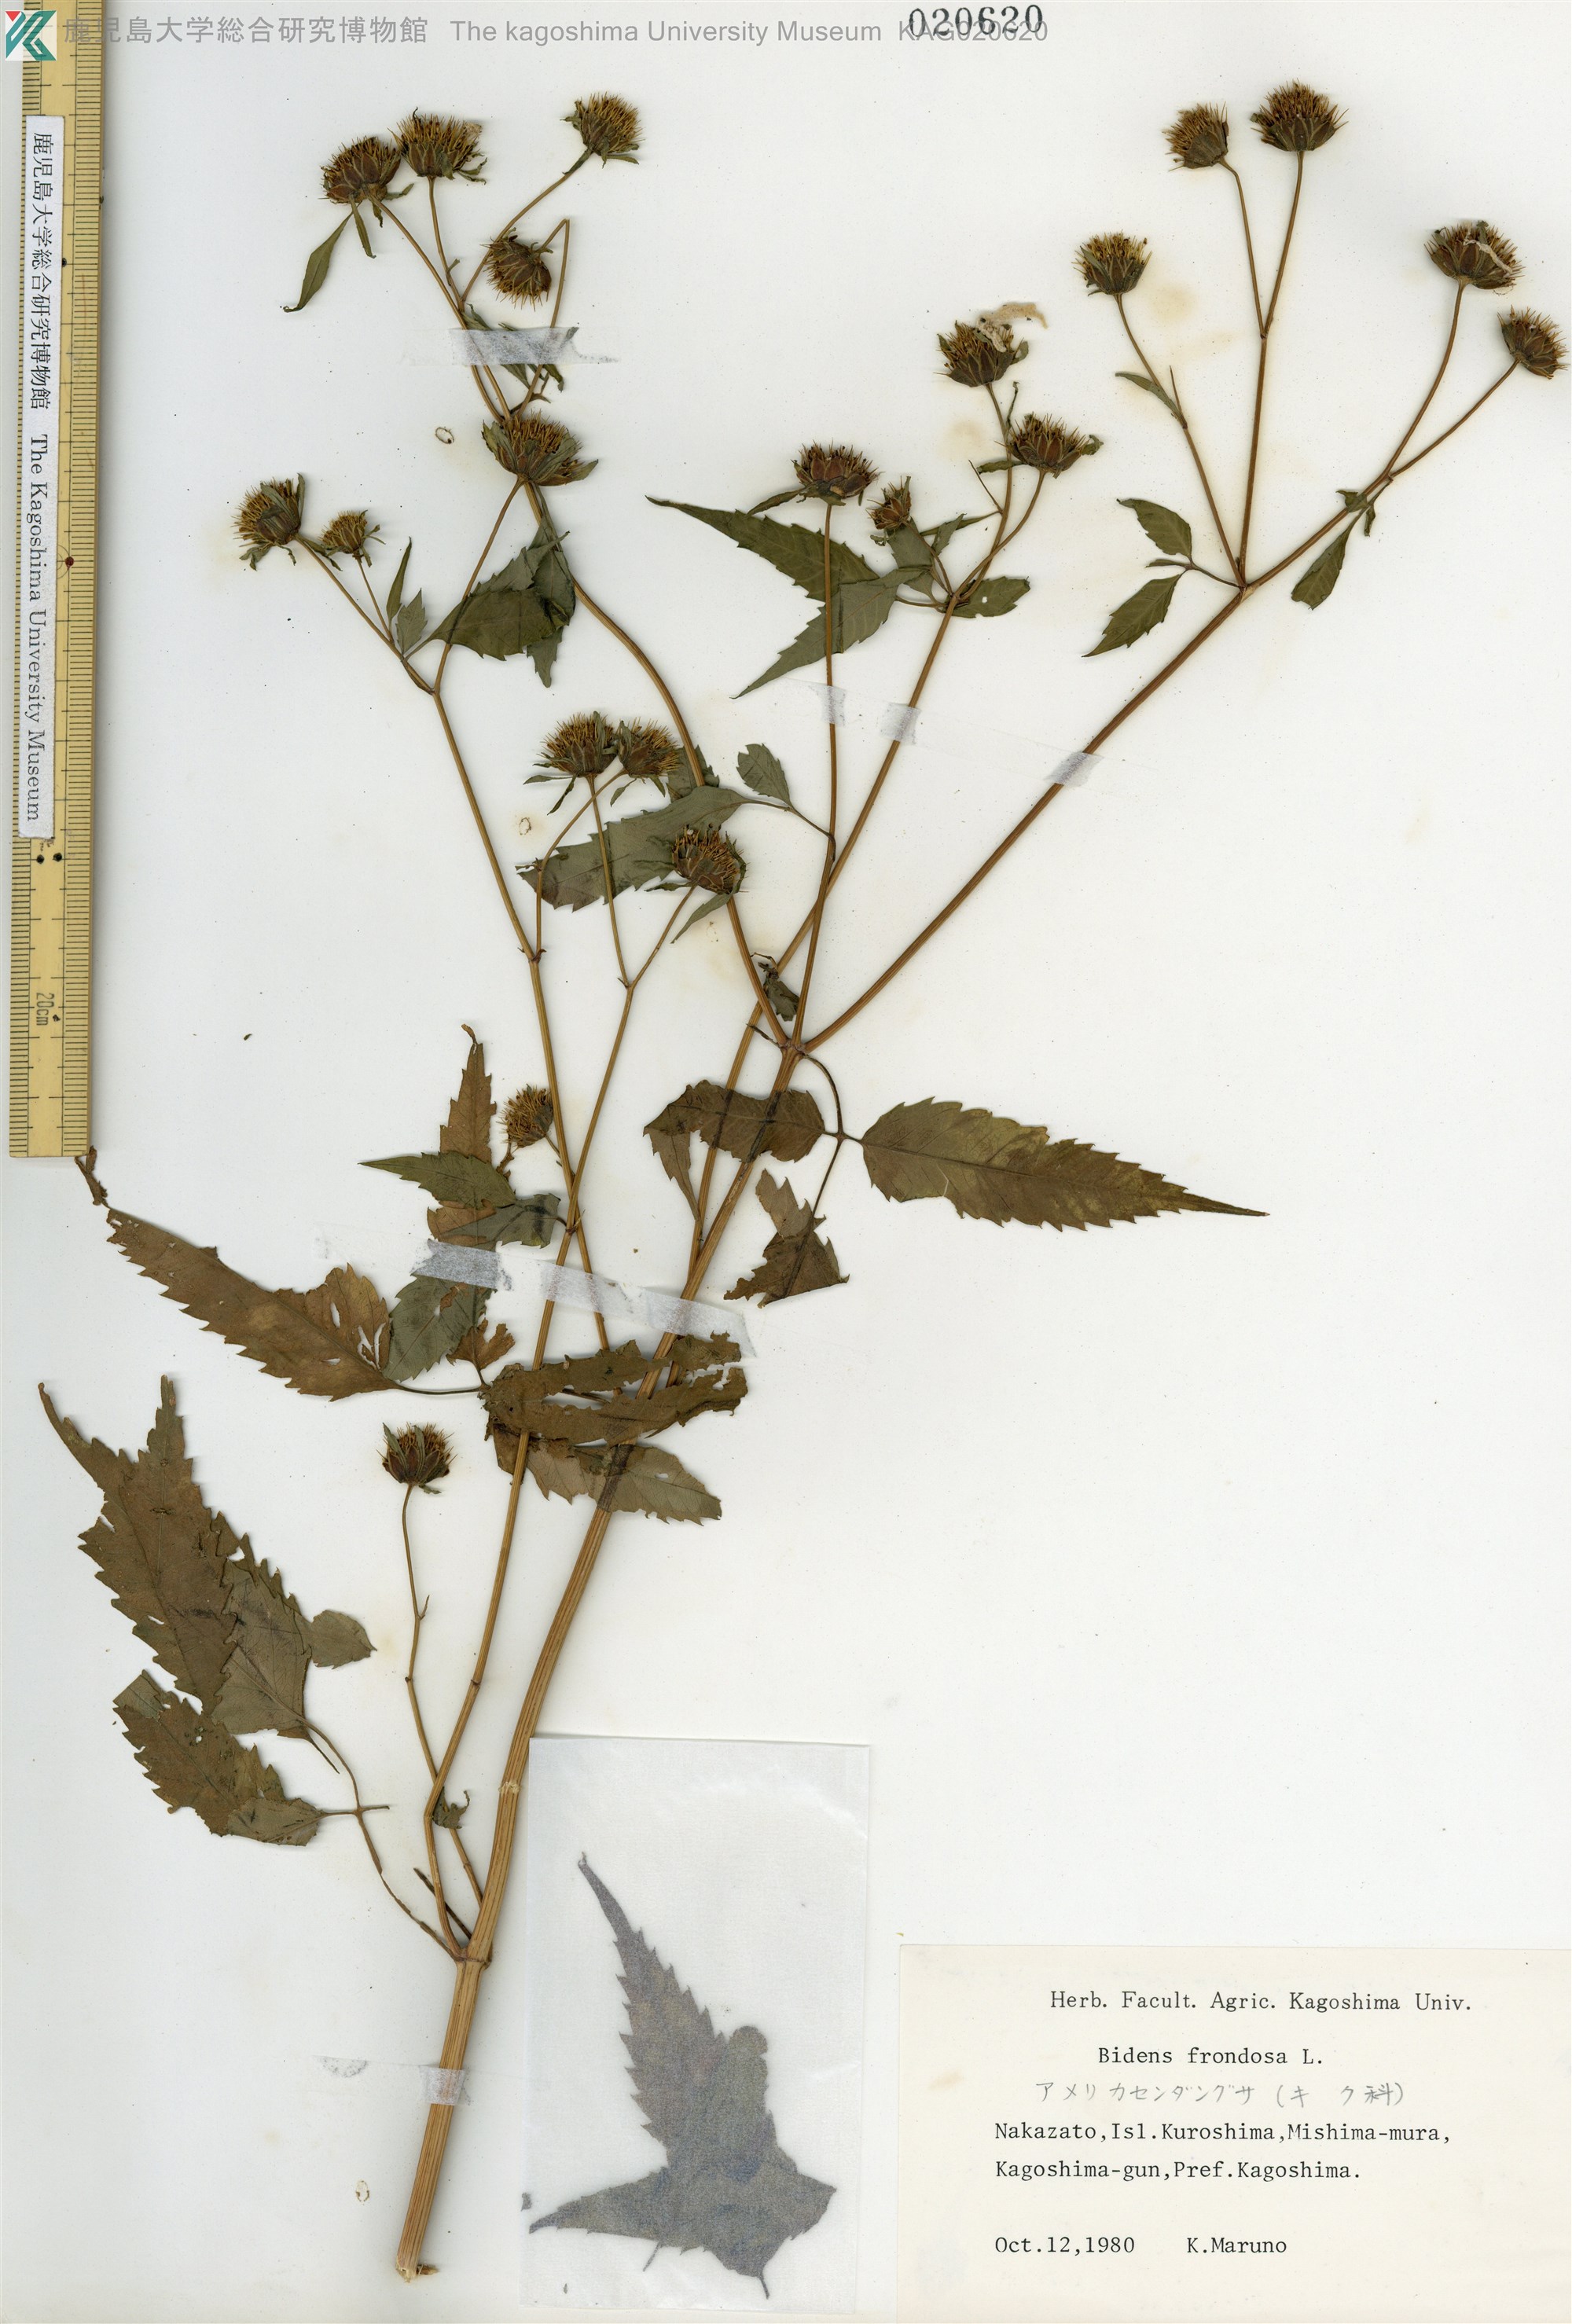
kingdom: Plantae
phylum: Tracheophyta
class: Magnoliopsida
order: Asterales
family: Asteraceae
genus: Bidens
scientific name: Bidens frondosa
